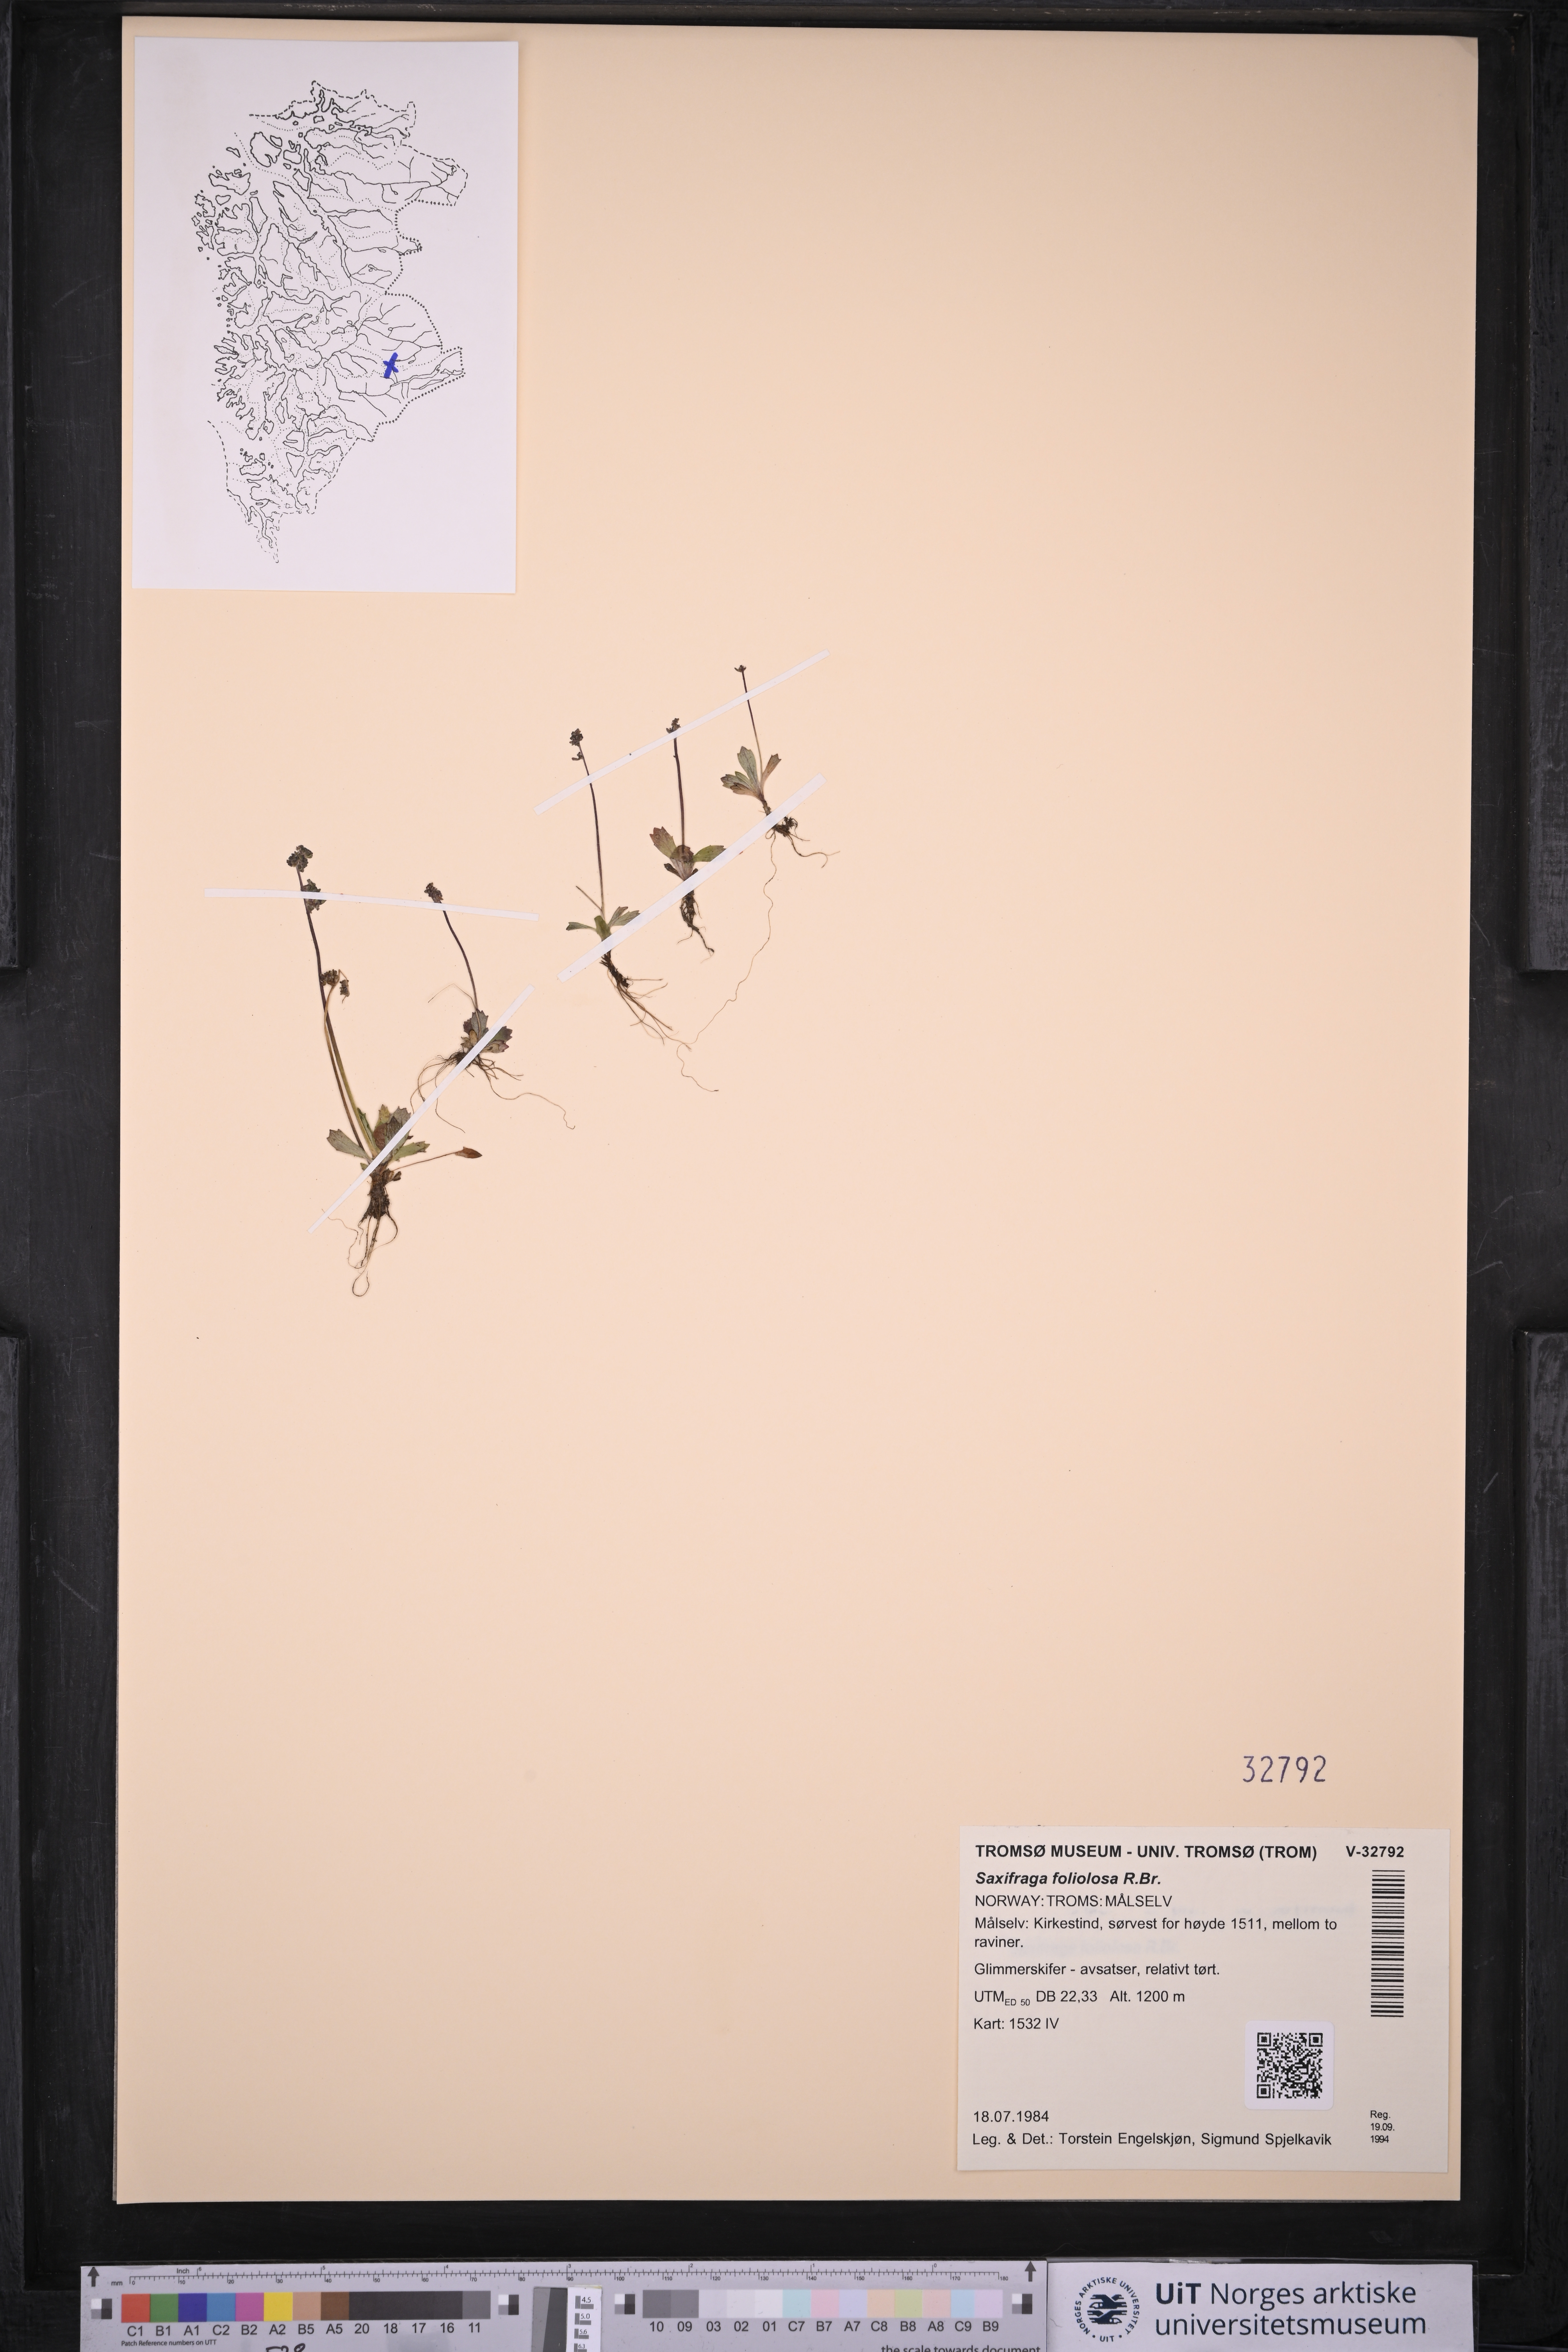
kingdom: Plantae
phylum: Tracheophyta
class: Magnoliopsida
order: Saxifragales
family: Saxifragaceae
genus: Micranthes
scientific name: Micranthes foliolosa
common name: Leafystem saxifrage
